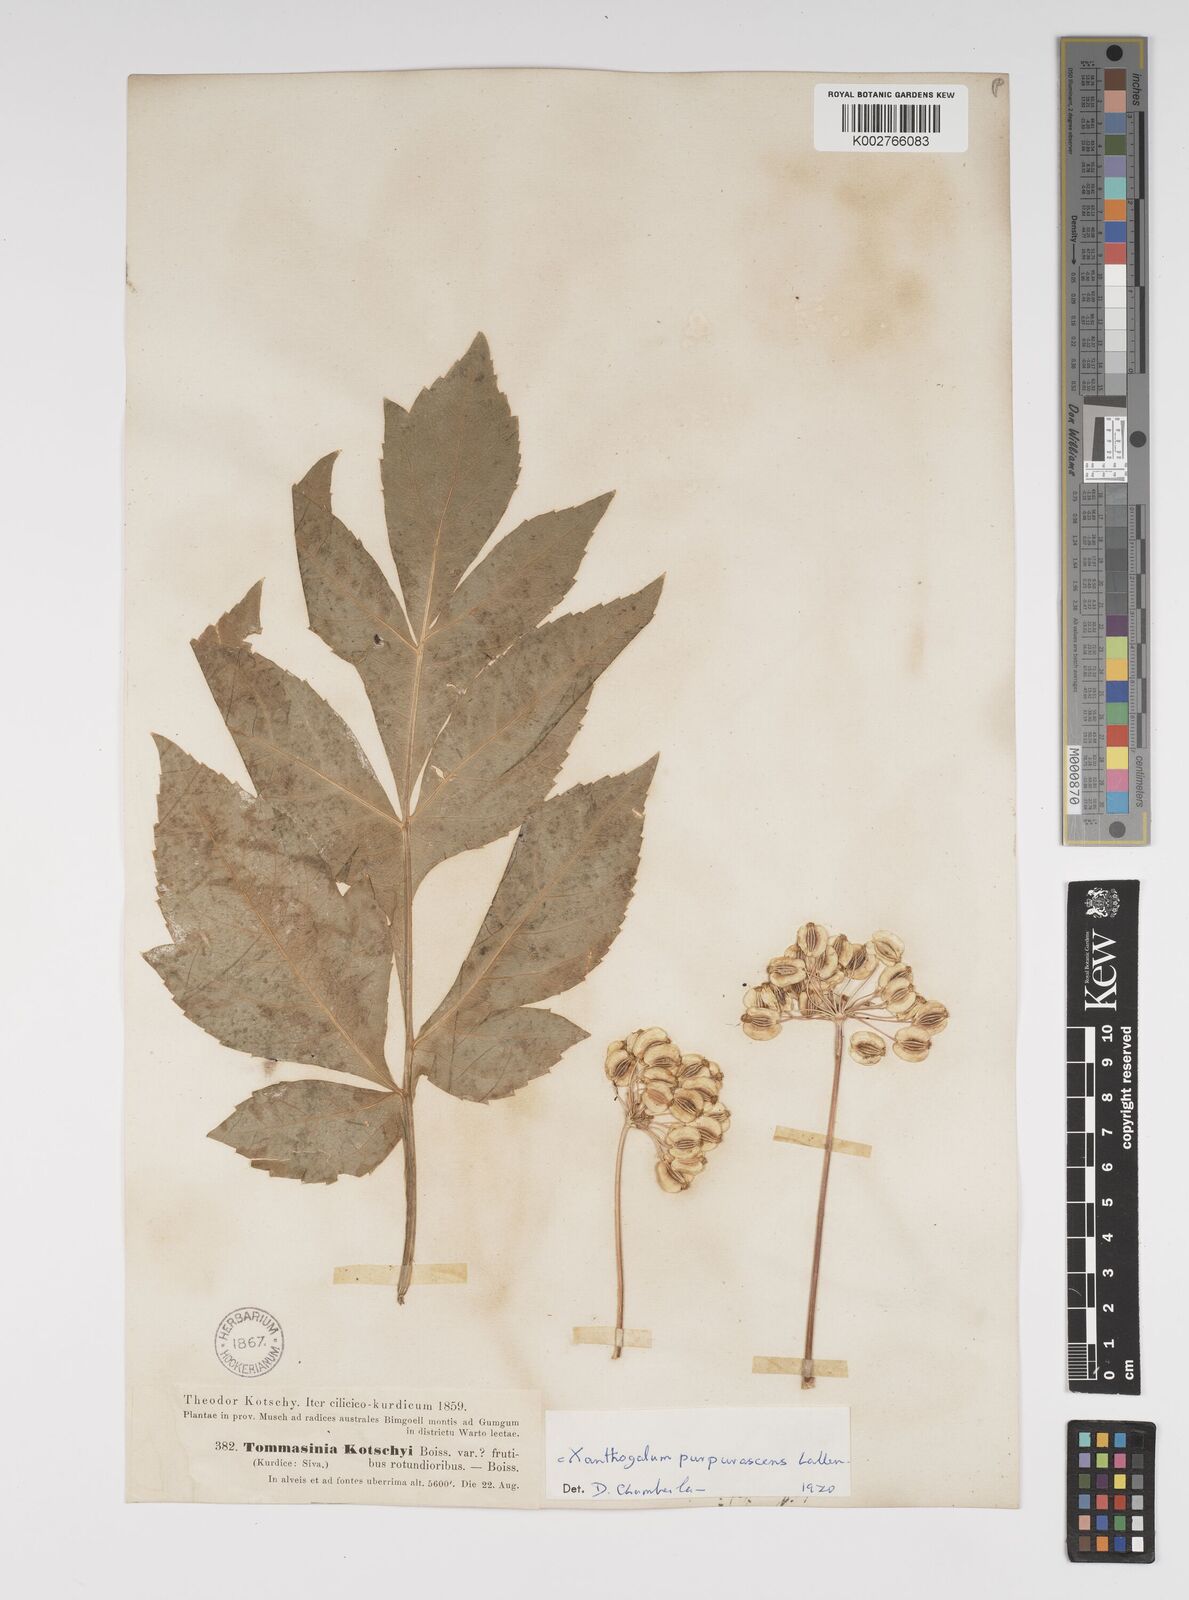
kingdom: Plantae
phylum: Tracheophyta
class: Magnoliopsida
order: Apiales
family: Apiaceae
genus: Xanthogalum
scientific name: Xanthogalum purpurascens
